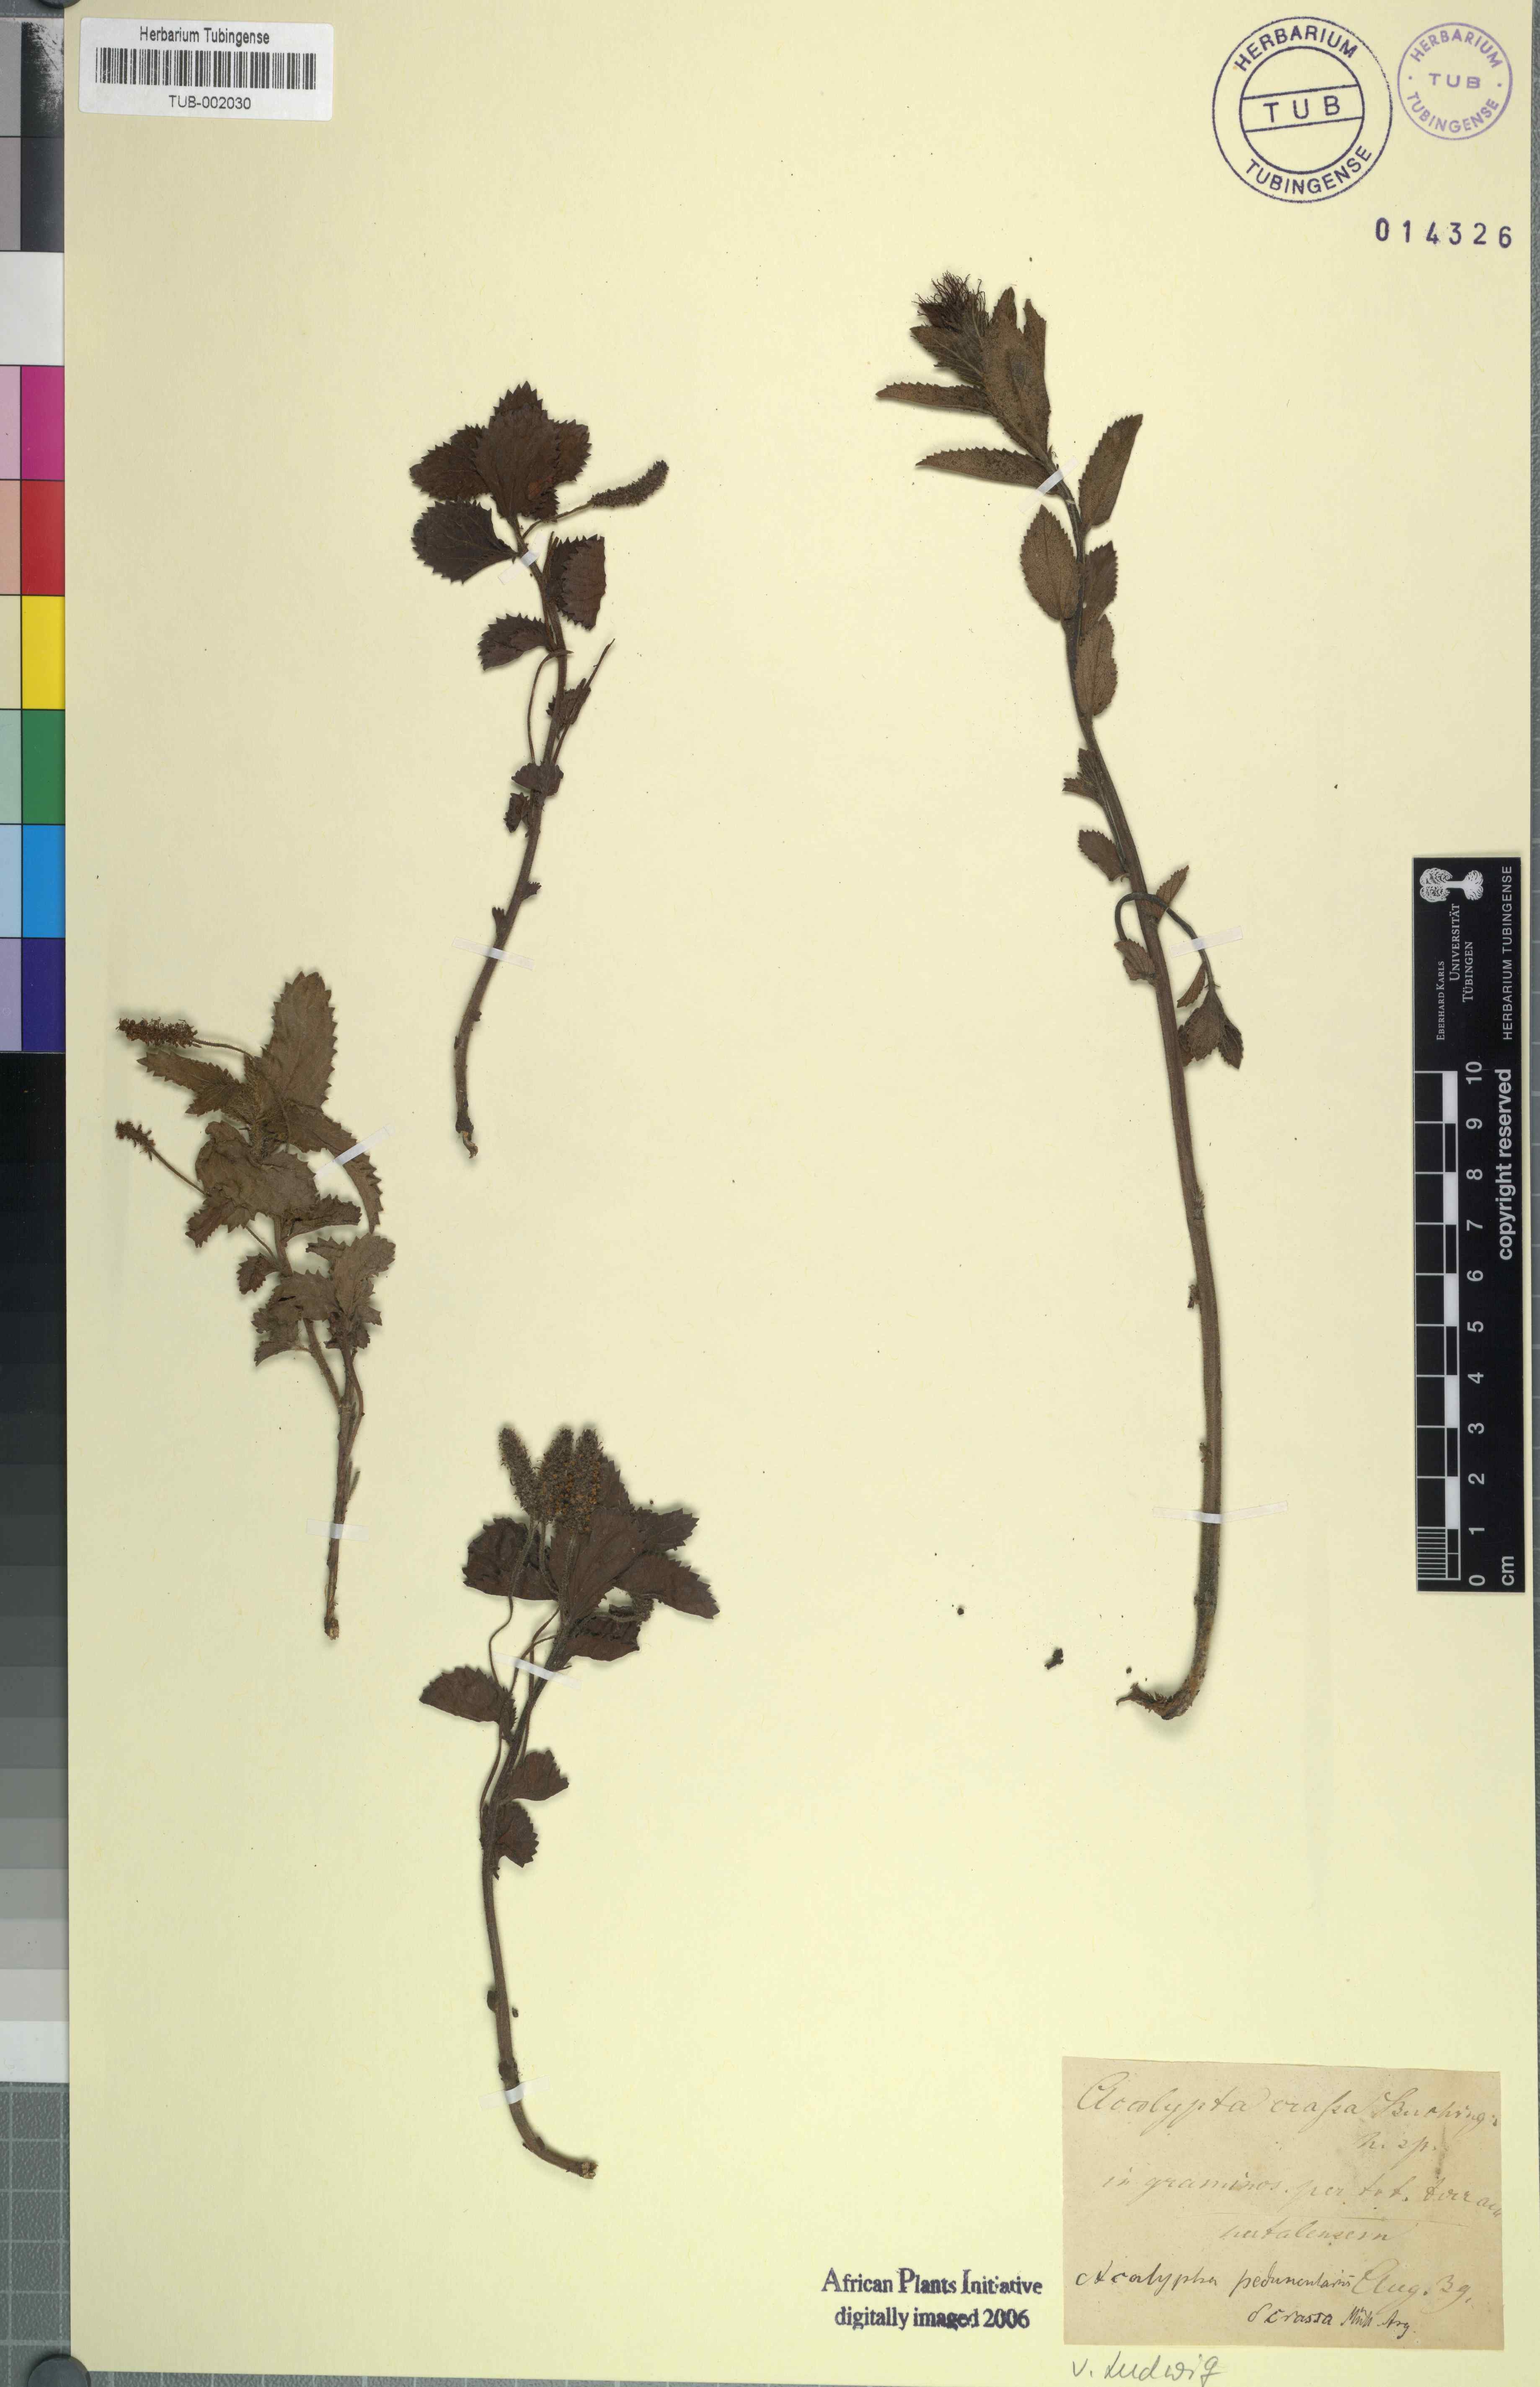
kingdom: Plantae
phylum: Tracheophyta
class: Magnoliopsida
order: Malpighiales
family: Euphorbiaceae
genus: Acalypha
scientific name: Acalypha peduncularis
